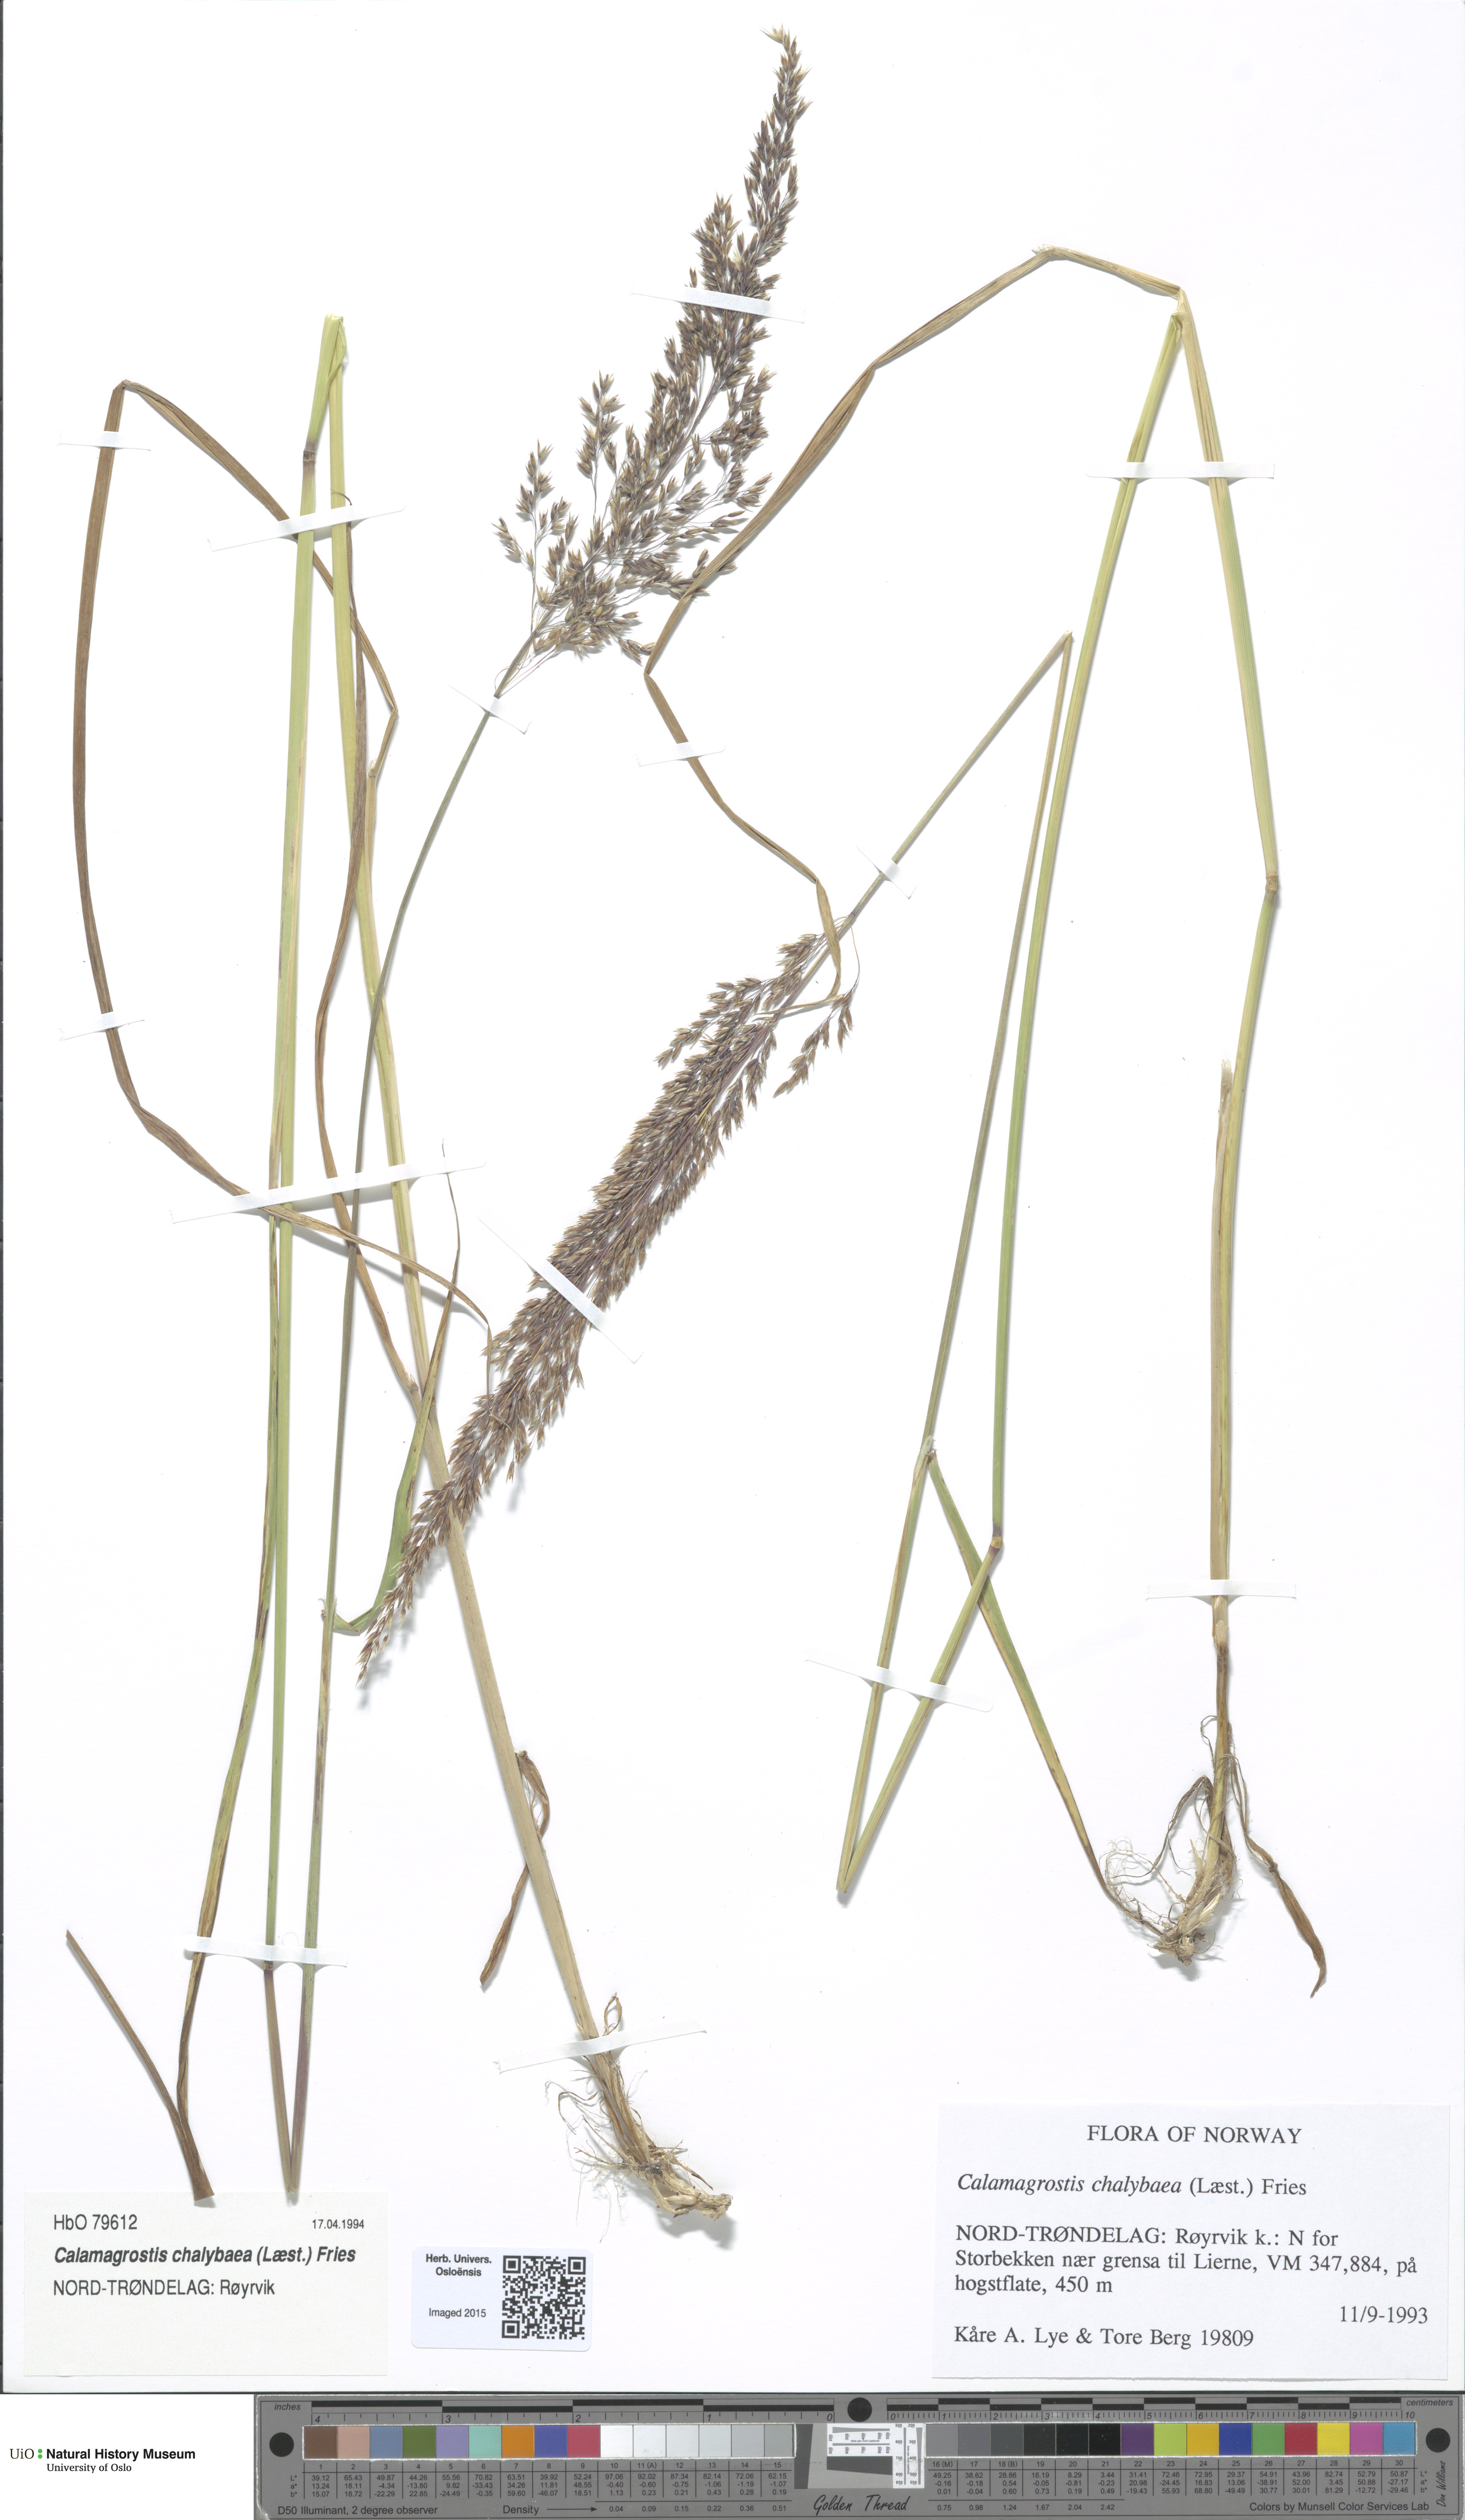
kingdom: Plantae
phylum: Tracheophyta
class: Liliopsida
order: Poales
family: Poaceae
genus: Calamagrostis
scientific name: Calamagrostis chalybaea
